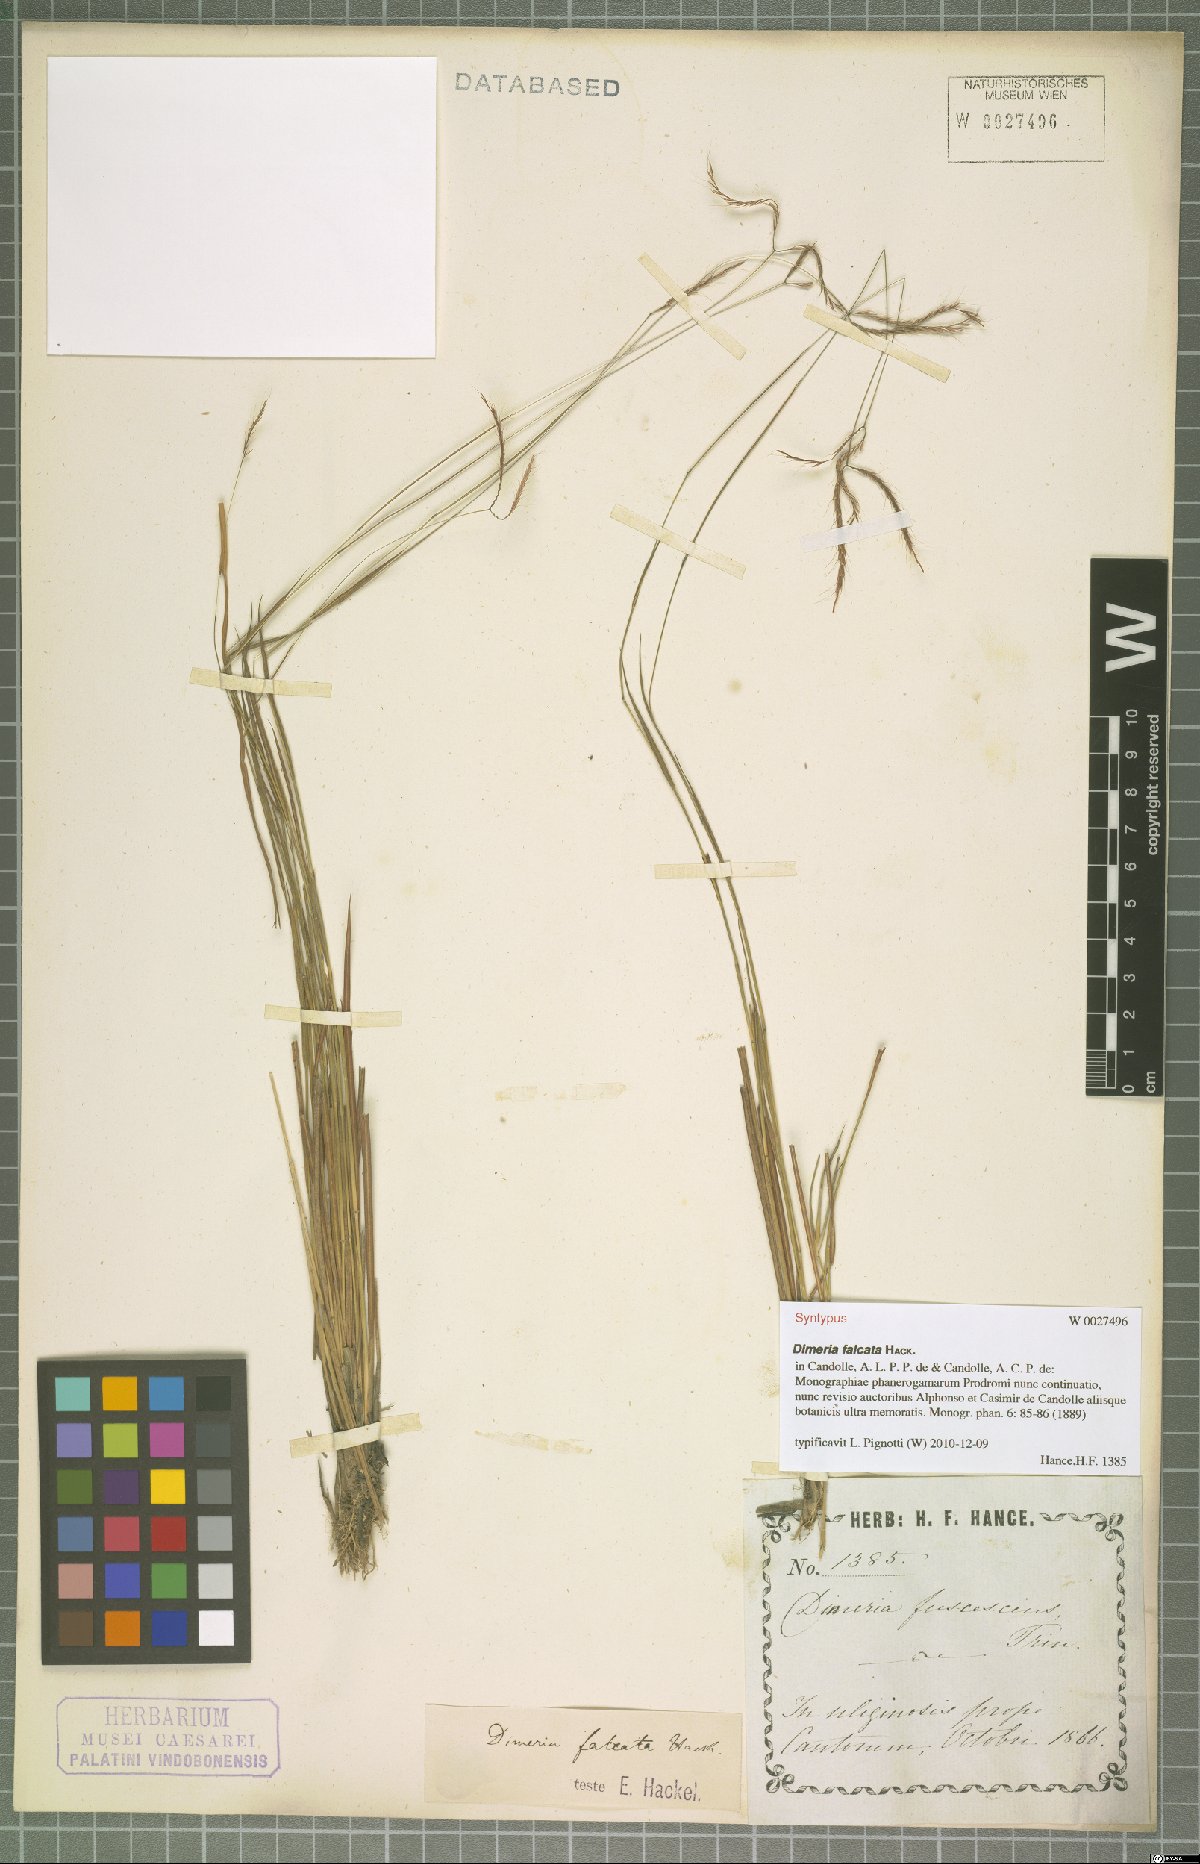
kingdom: Plantae
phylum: Tracheophyta
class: Liliopsida
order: Poales
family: Poaceae
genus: Dimeria
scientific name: Dimeria falcata
